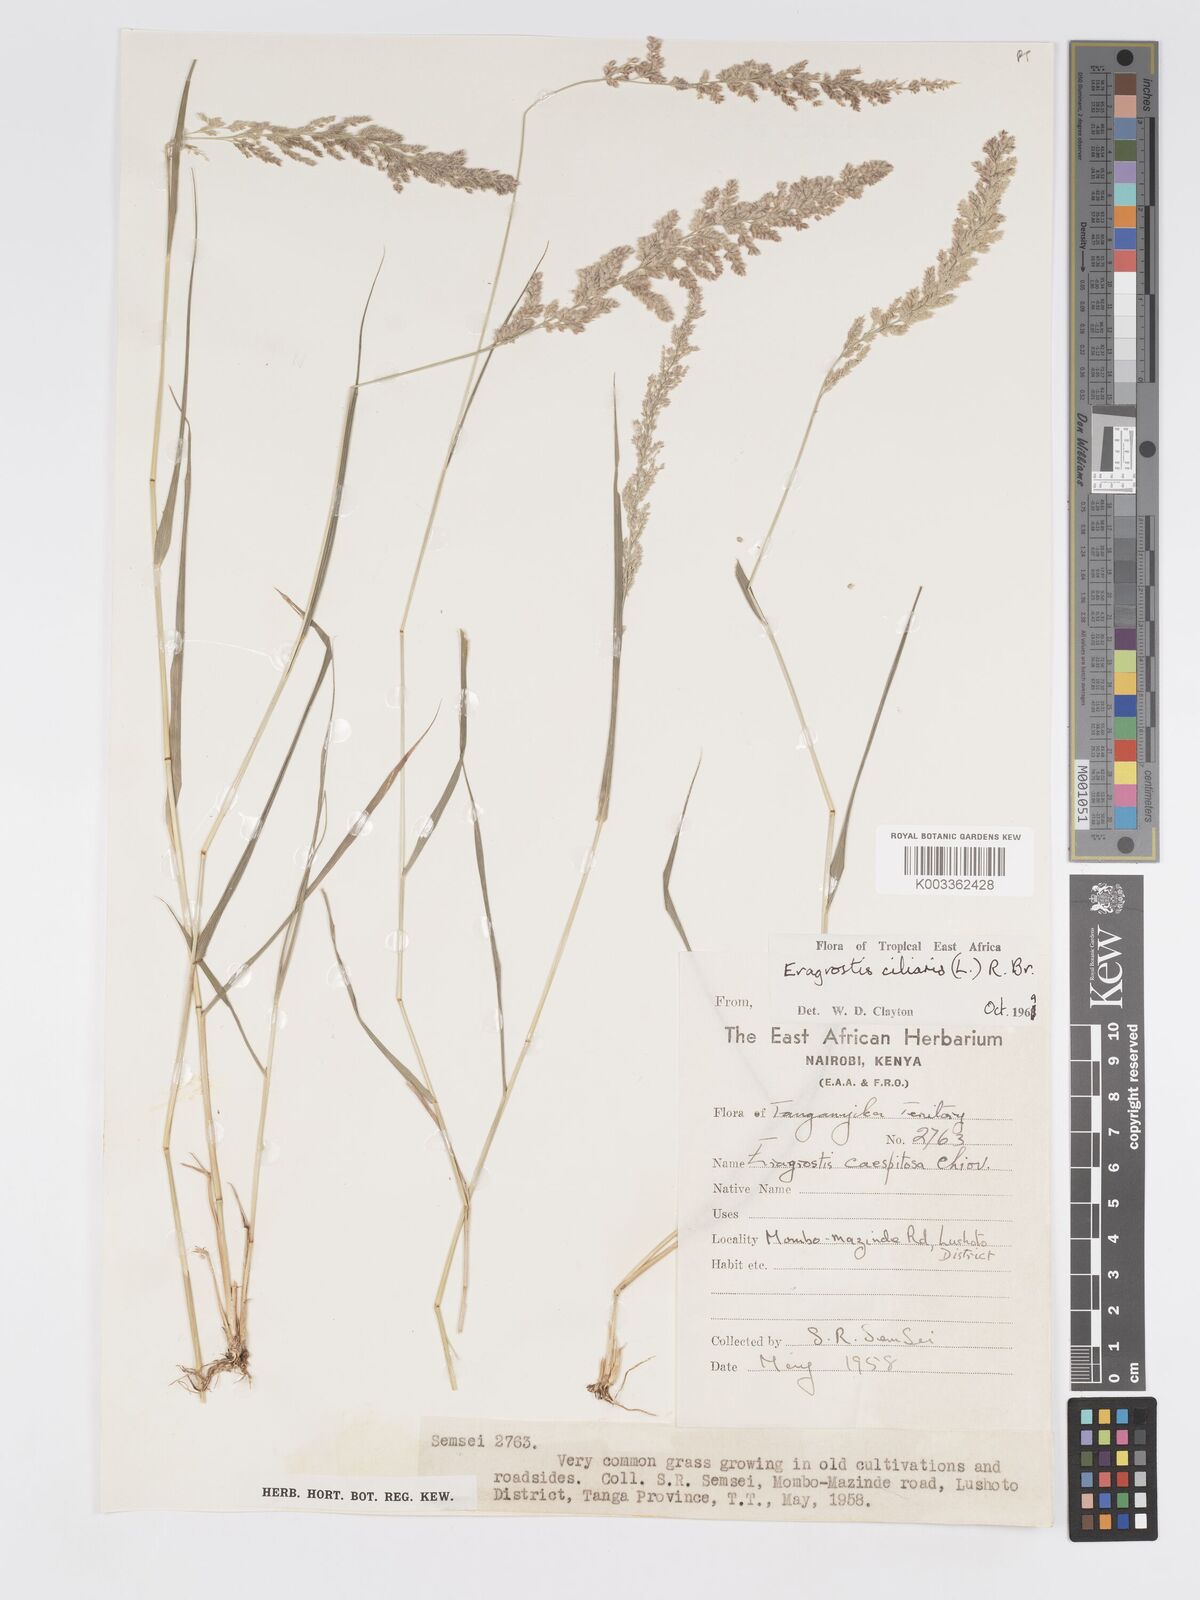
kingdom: Plantae
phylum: Tracheophyta
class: Liliopsida
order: Poales
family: Poaceae
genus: Eragrostis
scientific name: Eragrostis ciliaris
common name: Gophertail lovegrass
